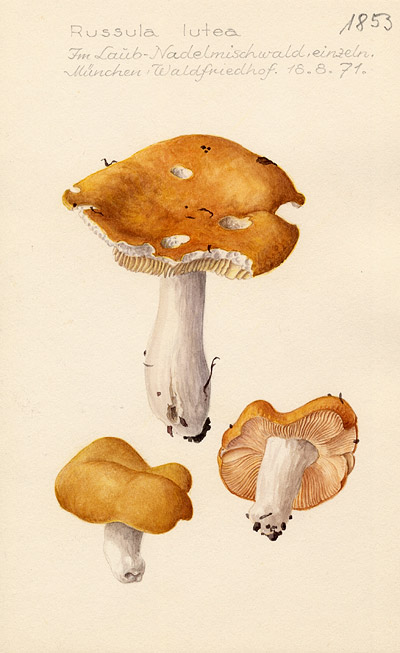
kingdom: Fungi
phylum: Basidiomycota
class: Agaricomycetes
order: Russulales
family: Russulaceae
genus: Russula
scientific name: Russula risigallina
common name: Golden brittlegill
